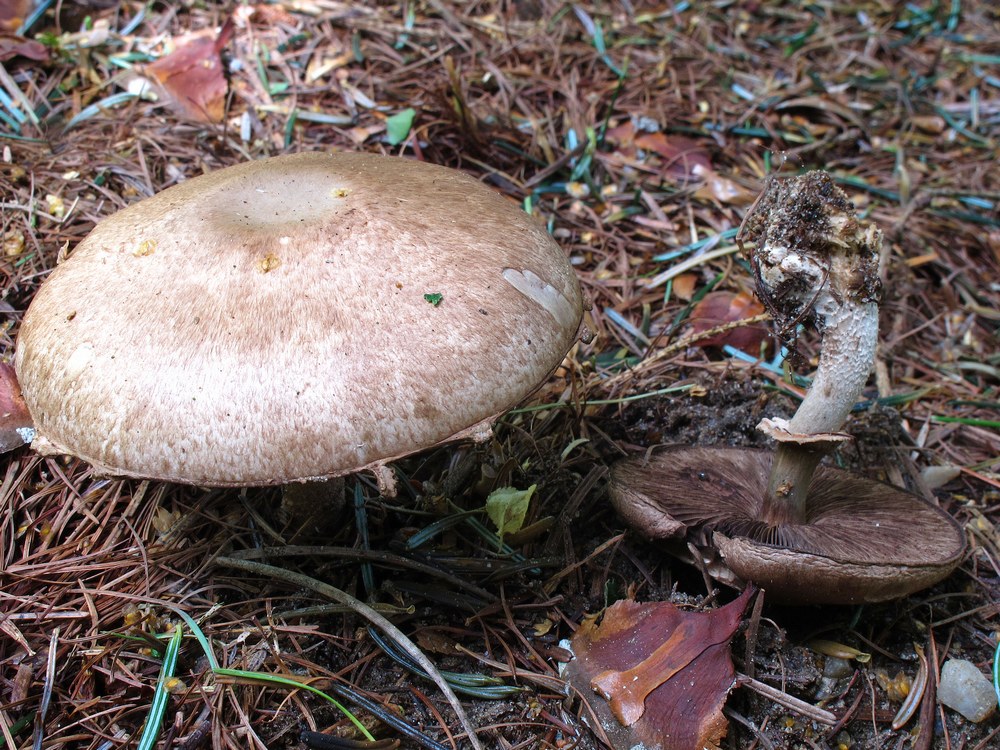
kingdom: Fungi
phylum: Basidiomycota
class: Agaricomycetes
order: Agaricales
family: Agaricaceae
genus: Agaricus
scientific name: Agaricus sylvaticus
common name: lille blod-champignon
